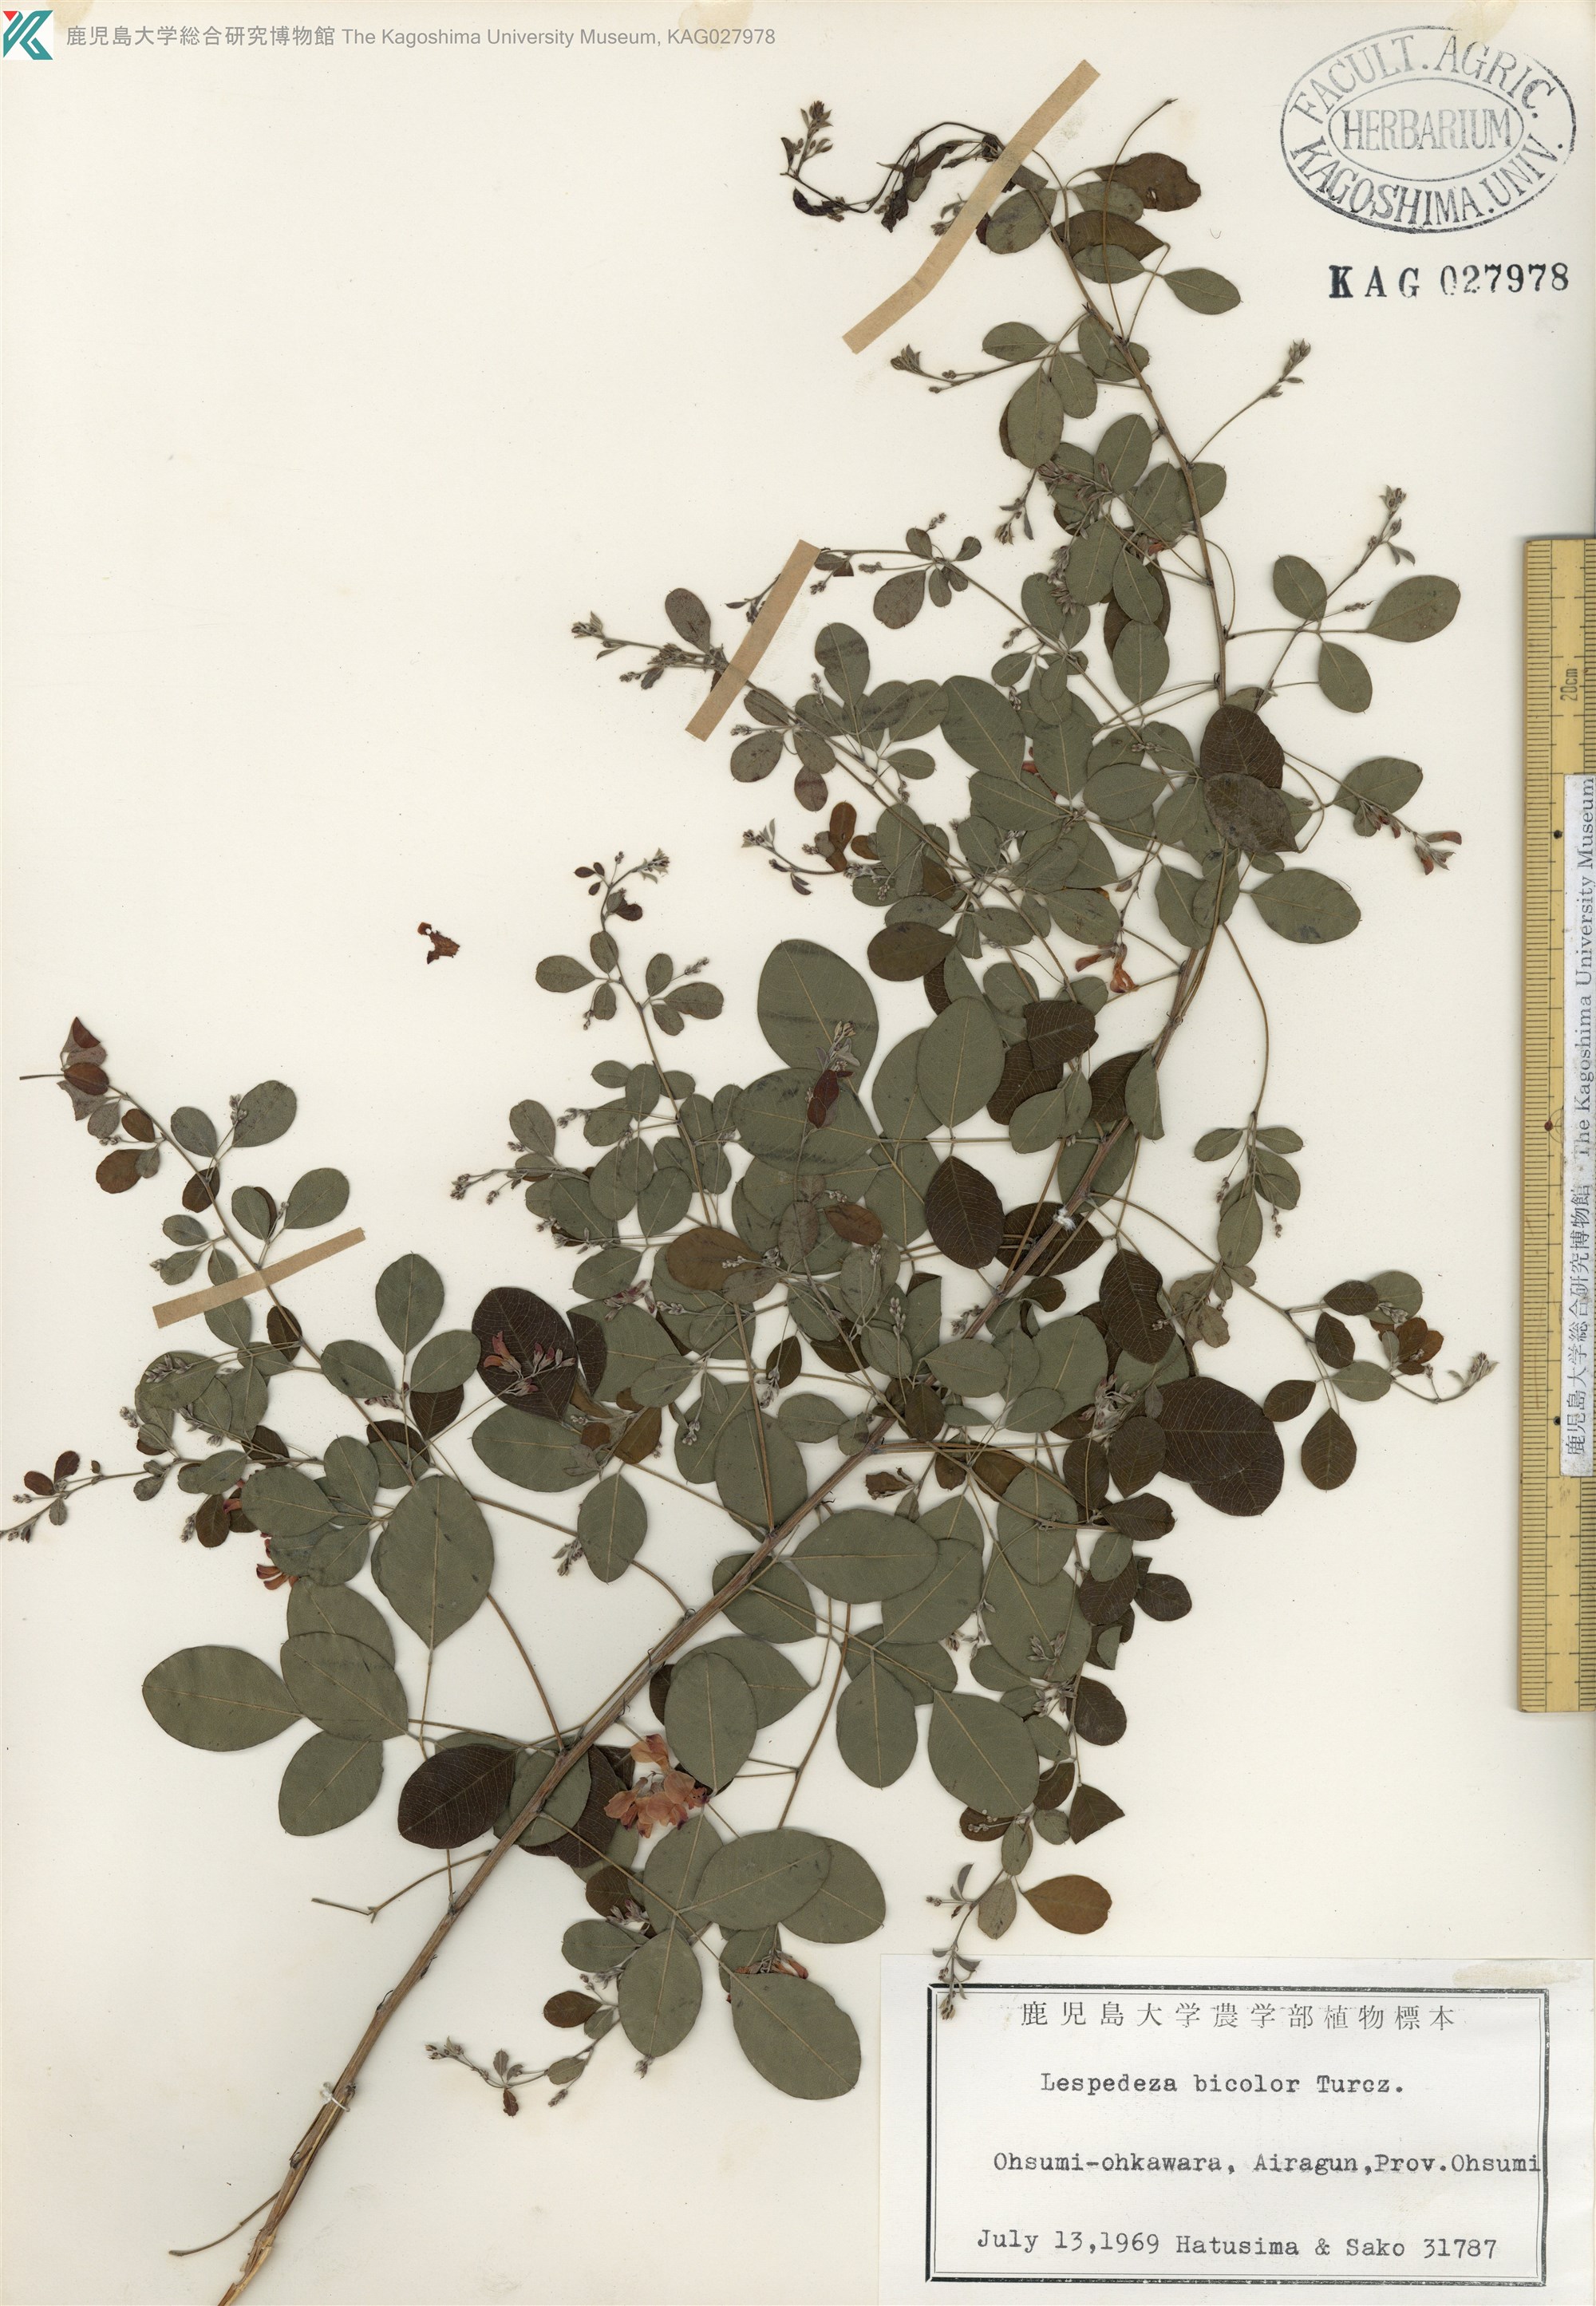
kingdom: Plantae
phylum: Tracheophyta
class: Magnoliopsida
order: Fabales
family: Fabaceae
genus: Lespedeza
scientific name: Lespedeza bicolor
